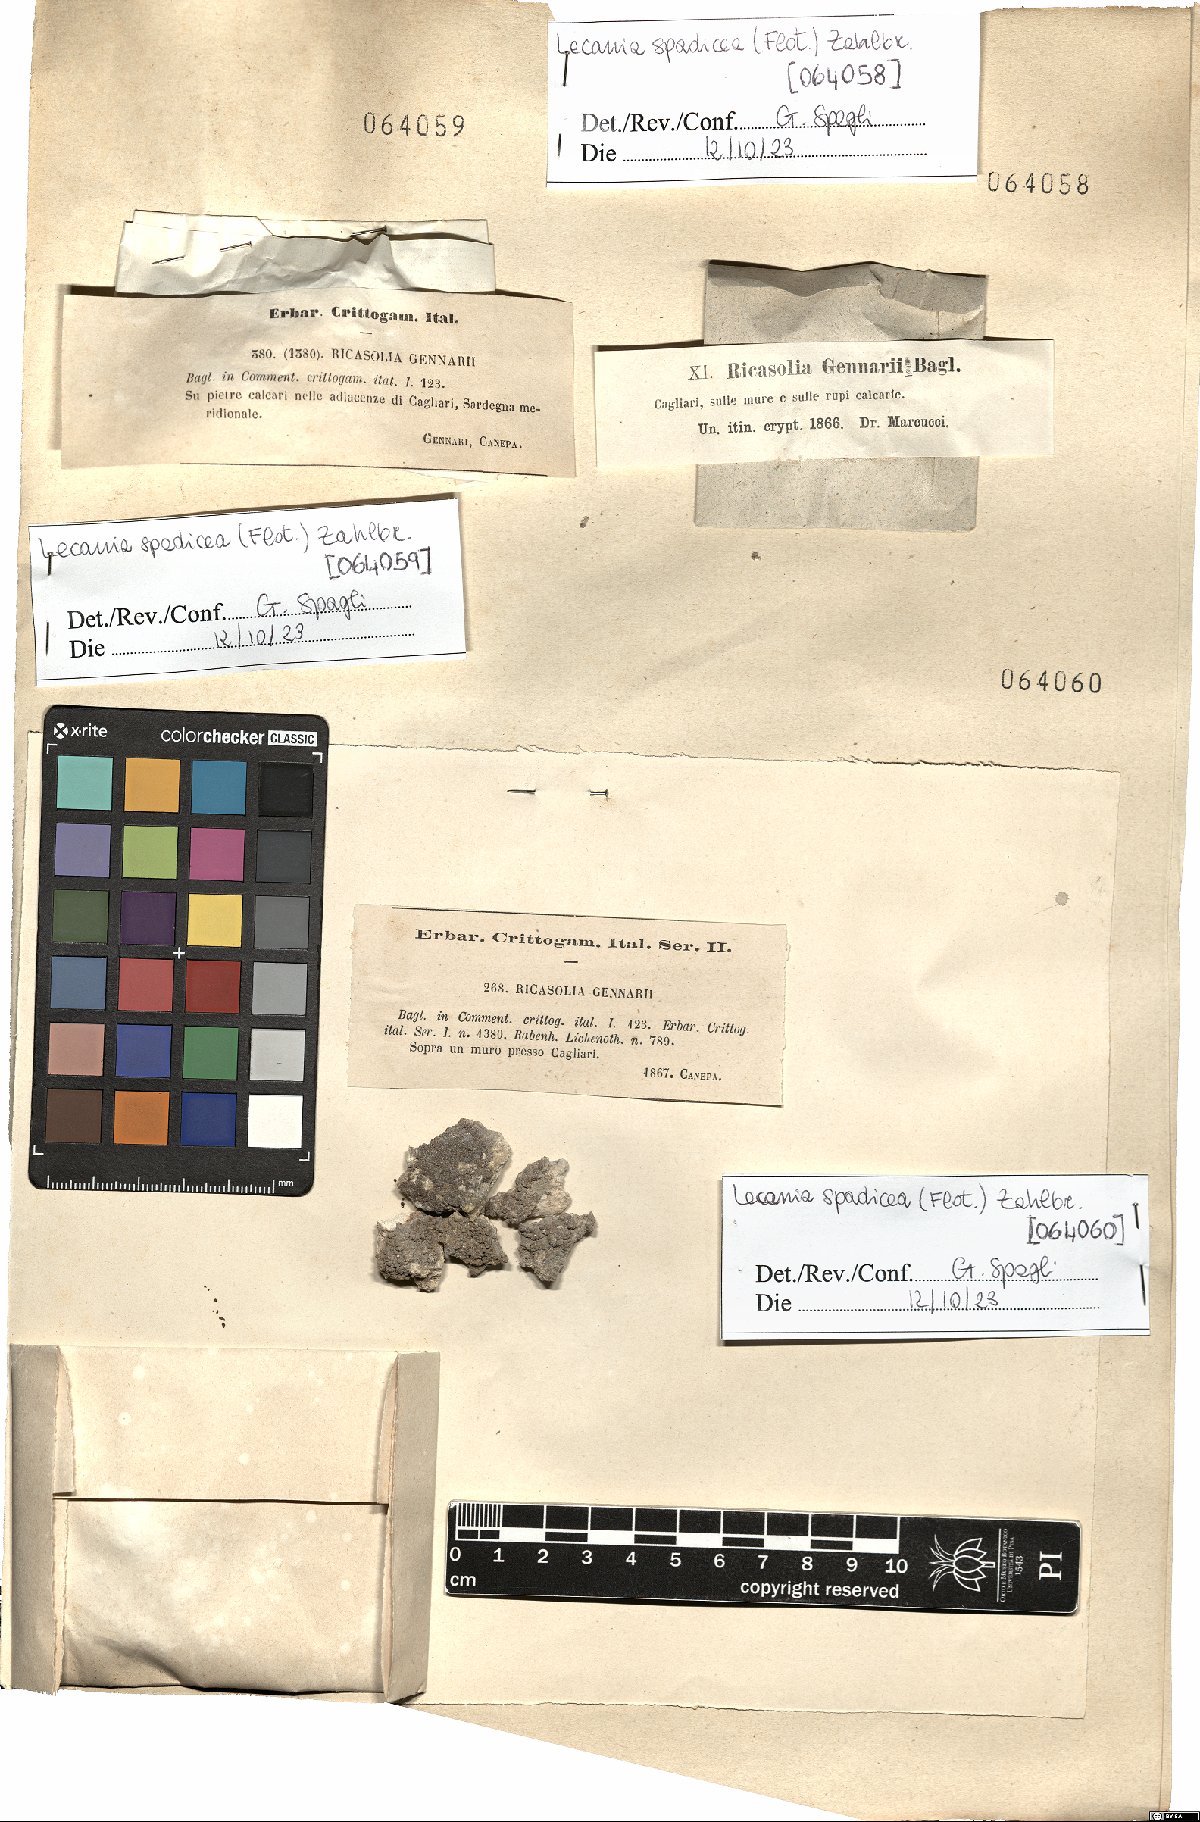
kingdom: Fungi
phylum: Ascomycota
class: Lecanoromycetes
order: Lecanorales
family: Ramalinaceae
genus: Lecania
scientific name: Lecania spadicea
